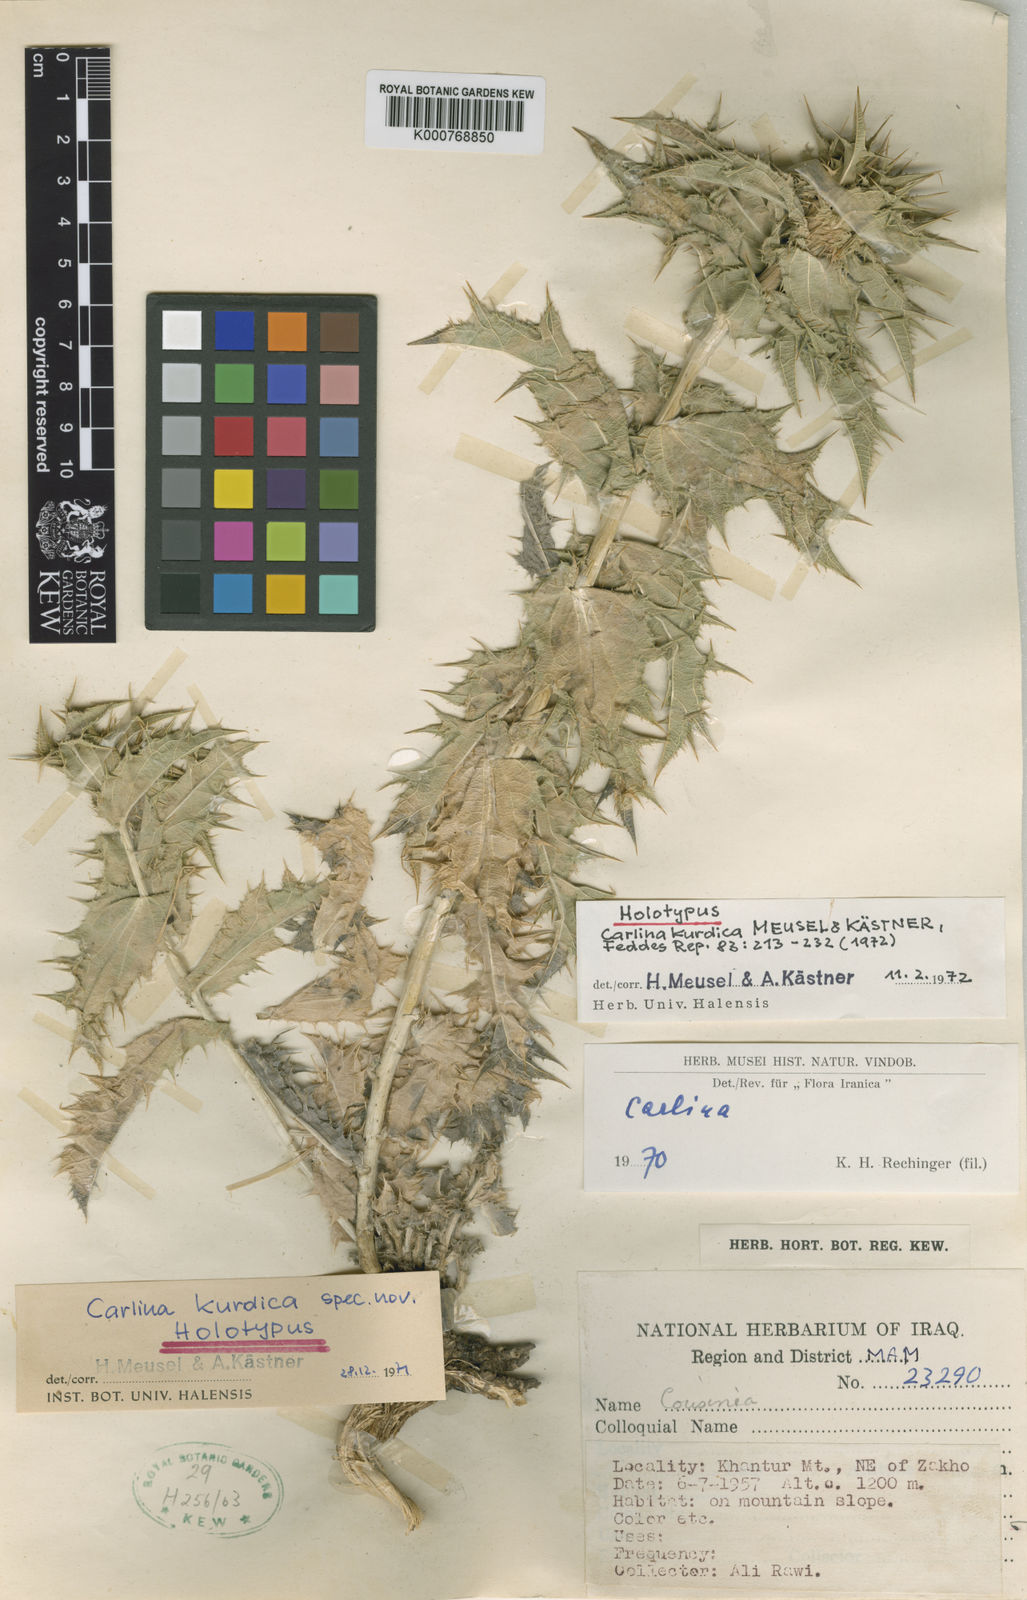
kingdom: Plantae
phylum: Tracheophyta
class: Magnoliopsida
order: Asterales
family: Asteraceae
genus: Carlina
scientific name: Carlina
